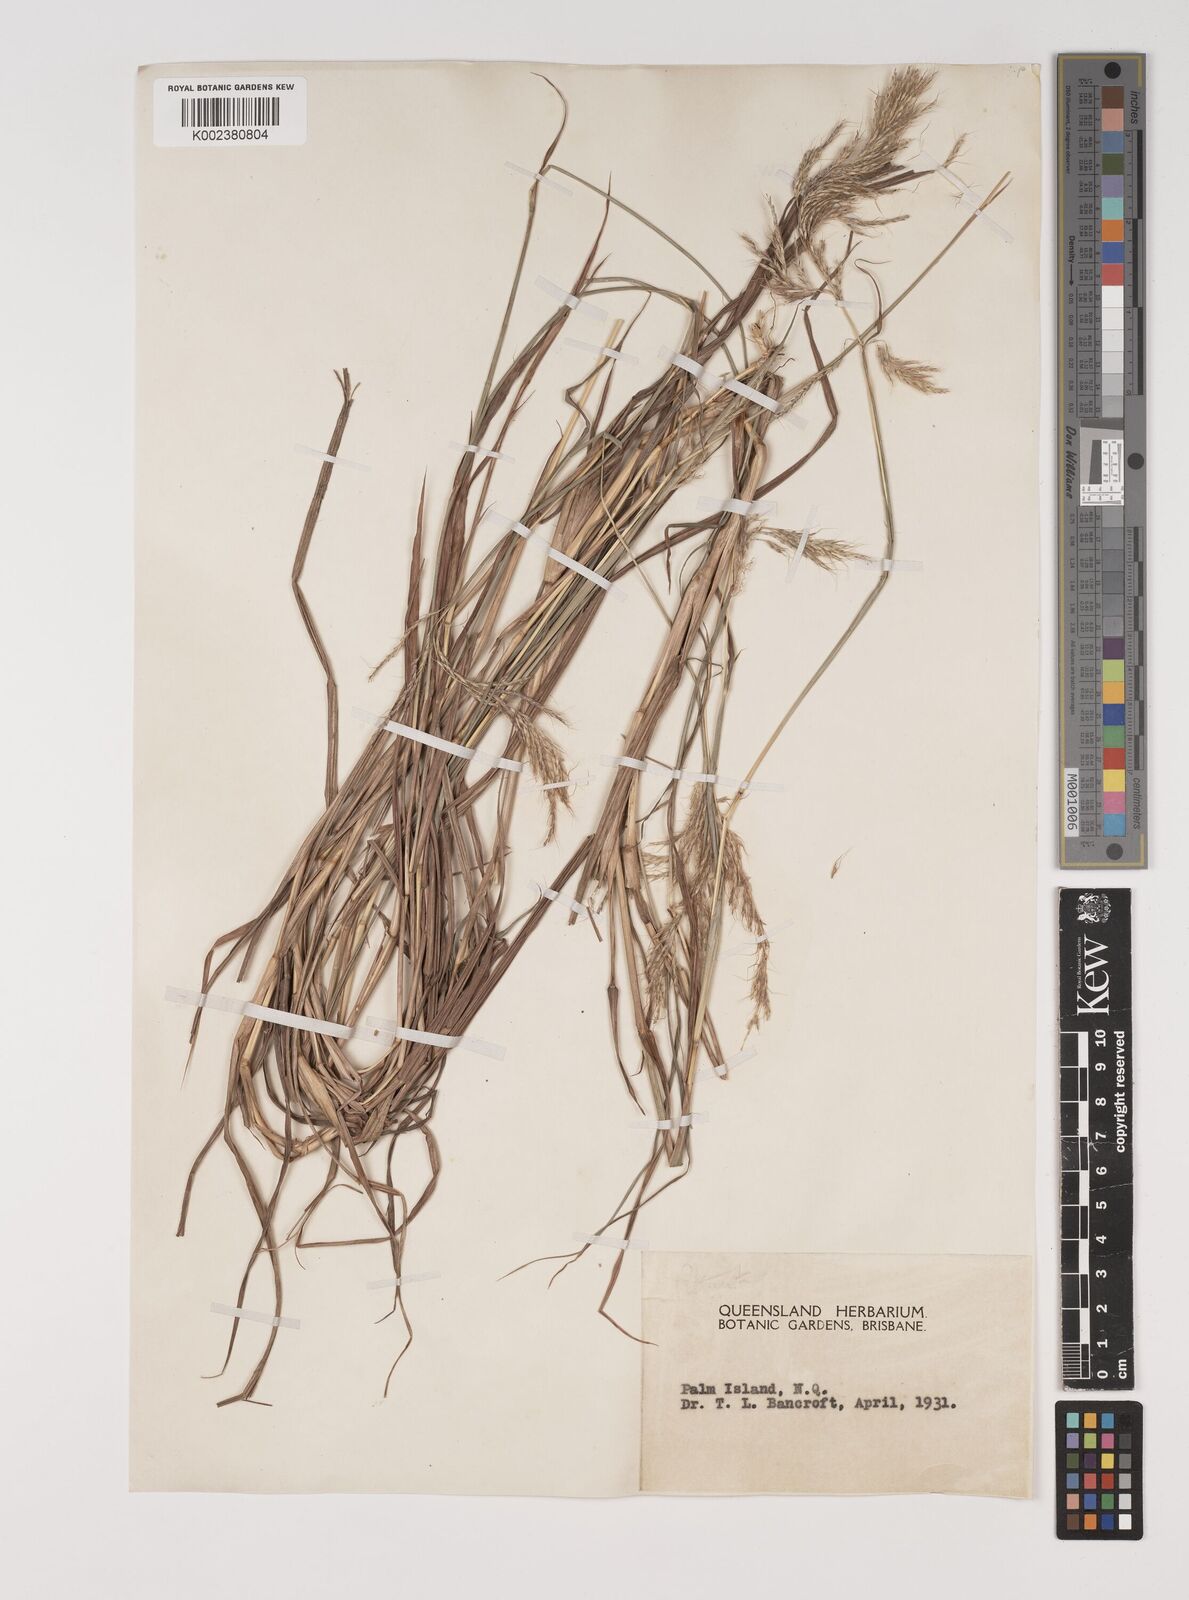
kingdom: Plantae
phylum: Tracheophyta
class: Liliopsida
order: Poales
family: Poaceae
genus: Bothriochloa
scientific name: Bothriochloa bladhii
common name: Caucasian bluestem
